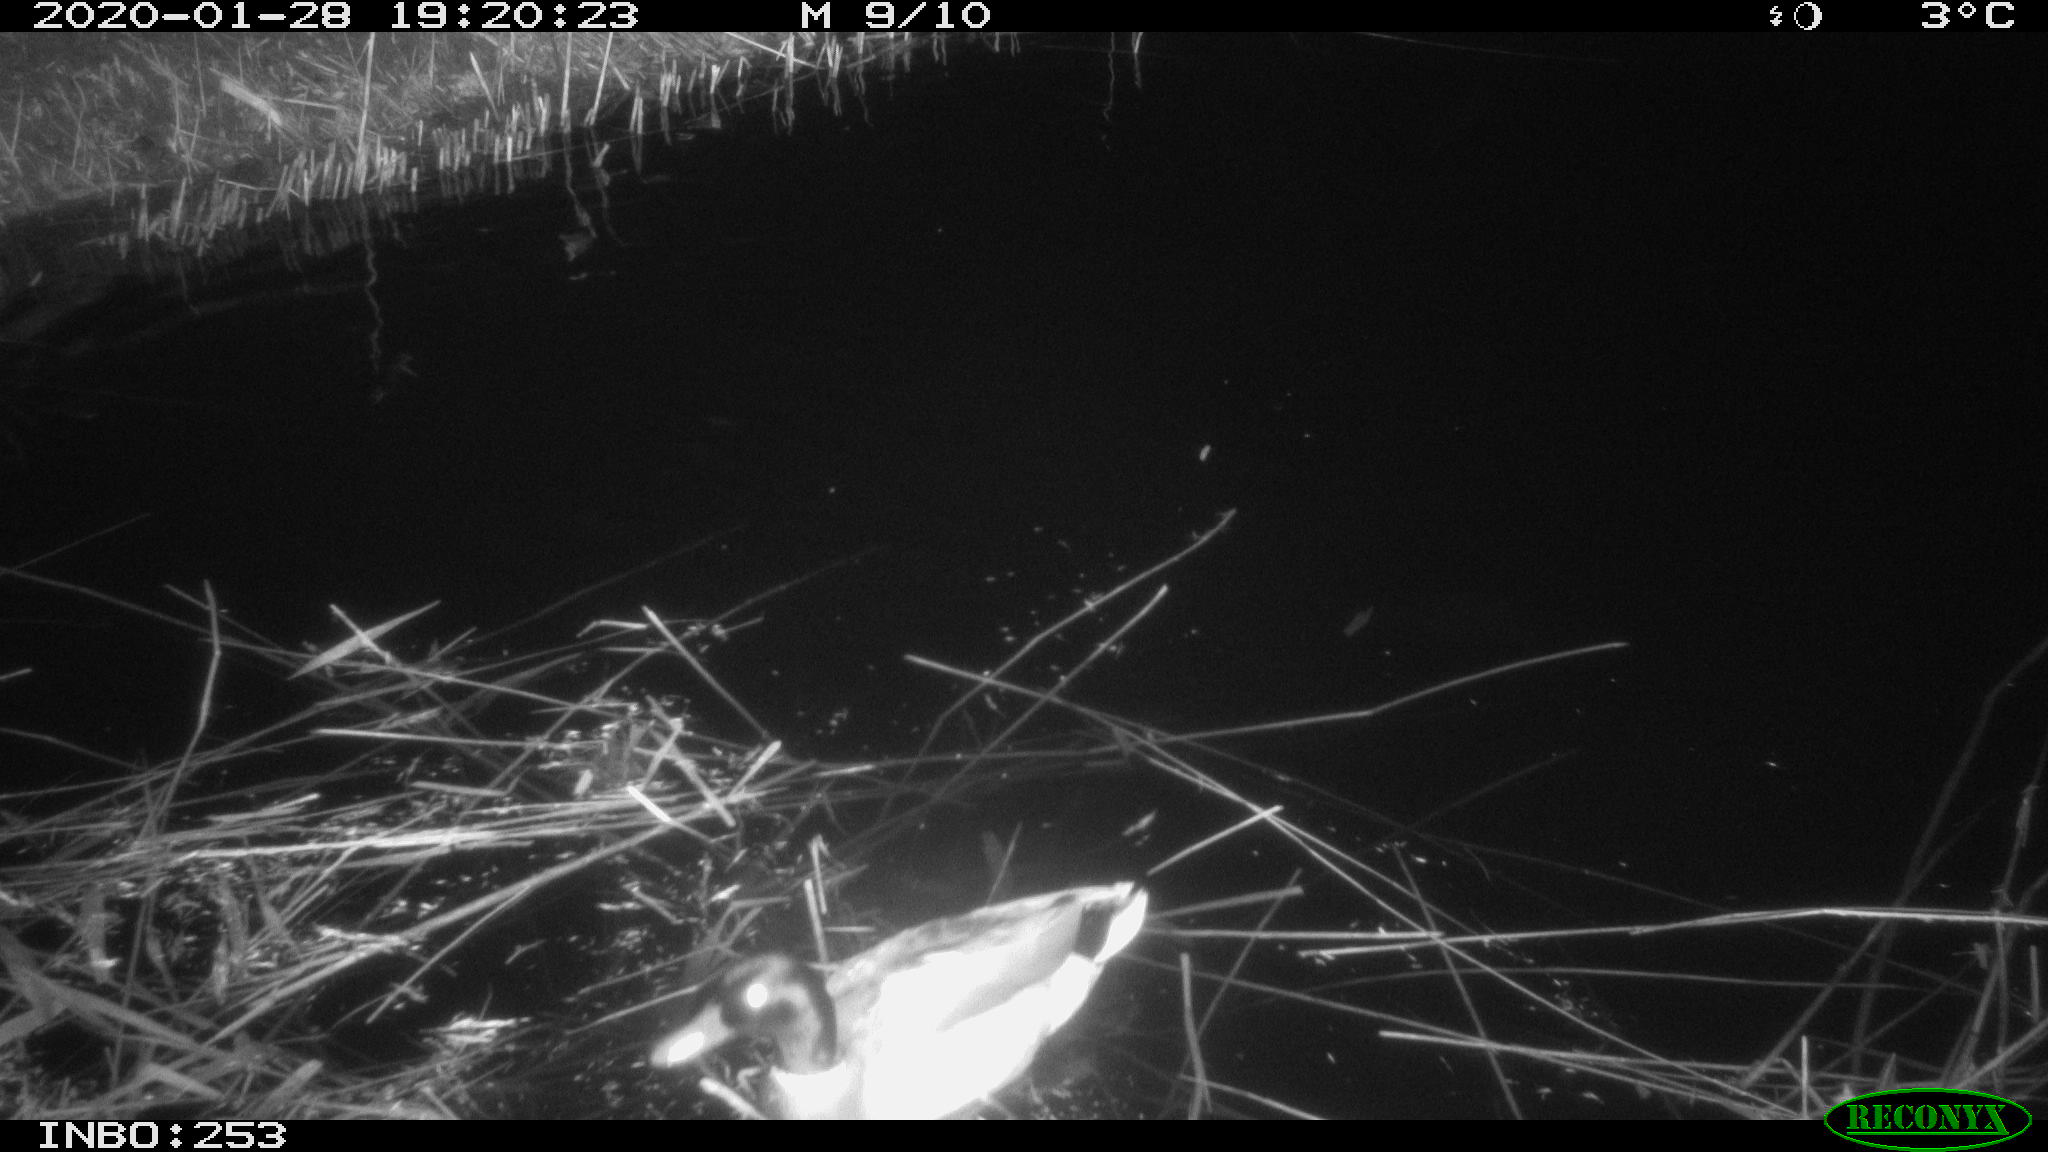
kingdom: Animalia
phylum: Chordata
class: Aves
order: Anseriformes
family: Anatidae
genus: Anas
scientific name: Anas platyrhynchos
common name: Mallard
